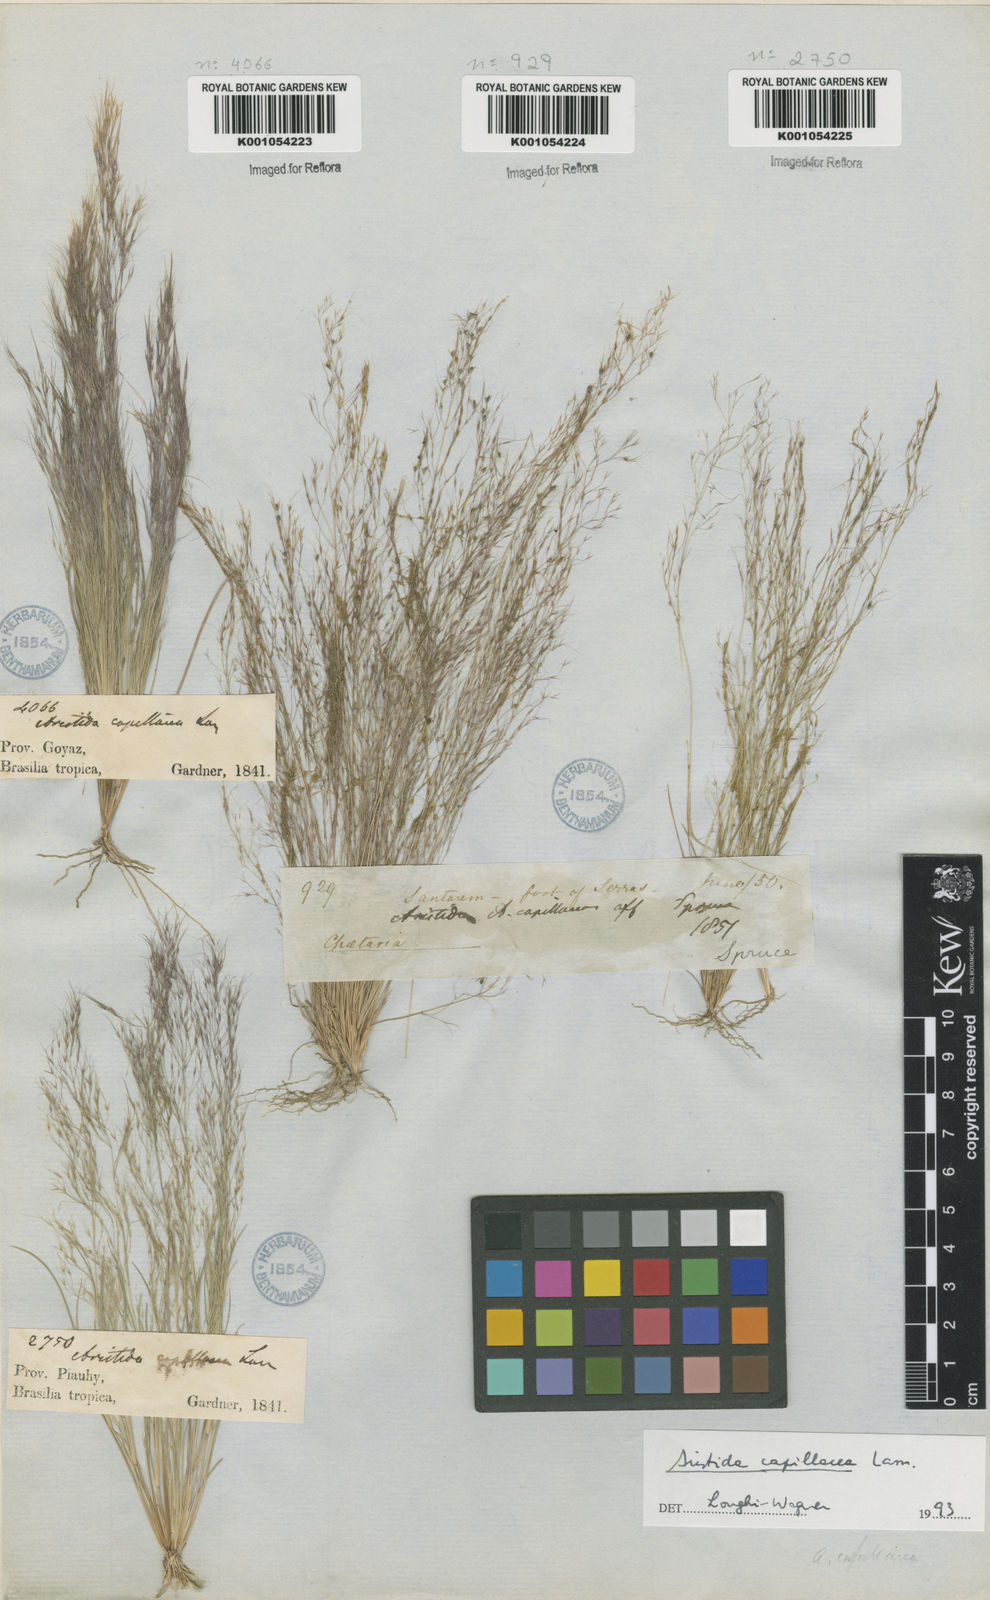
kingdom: Plantae
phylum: Tracheophyta
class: Liliopsida
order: Poales
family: Poaceae
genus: Aristida
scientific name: Aristida capillacea
